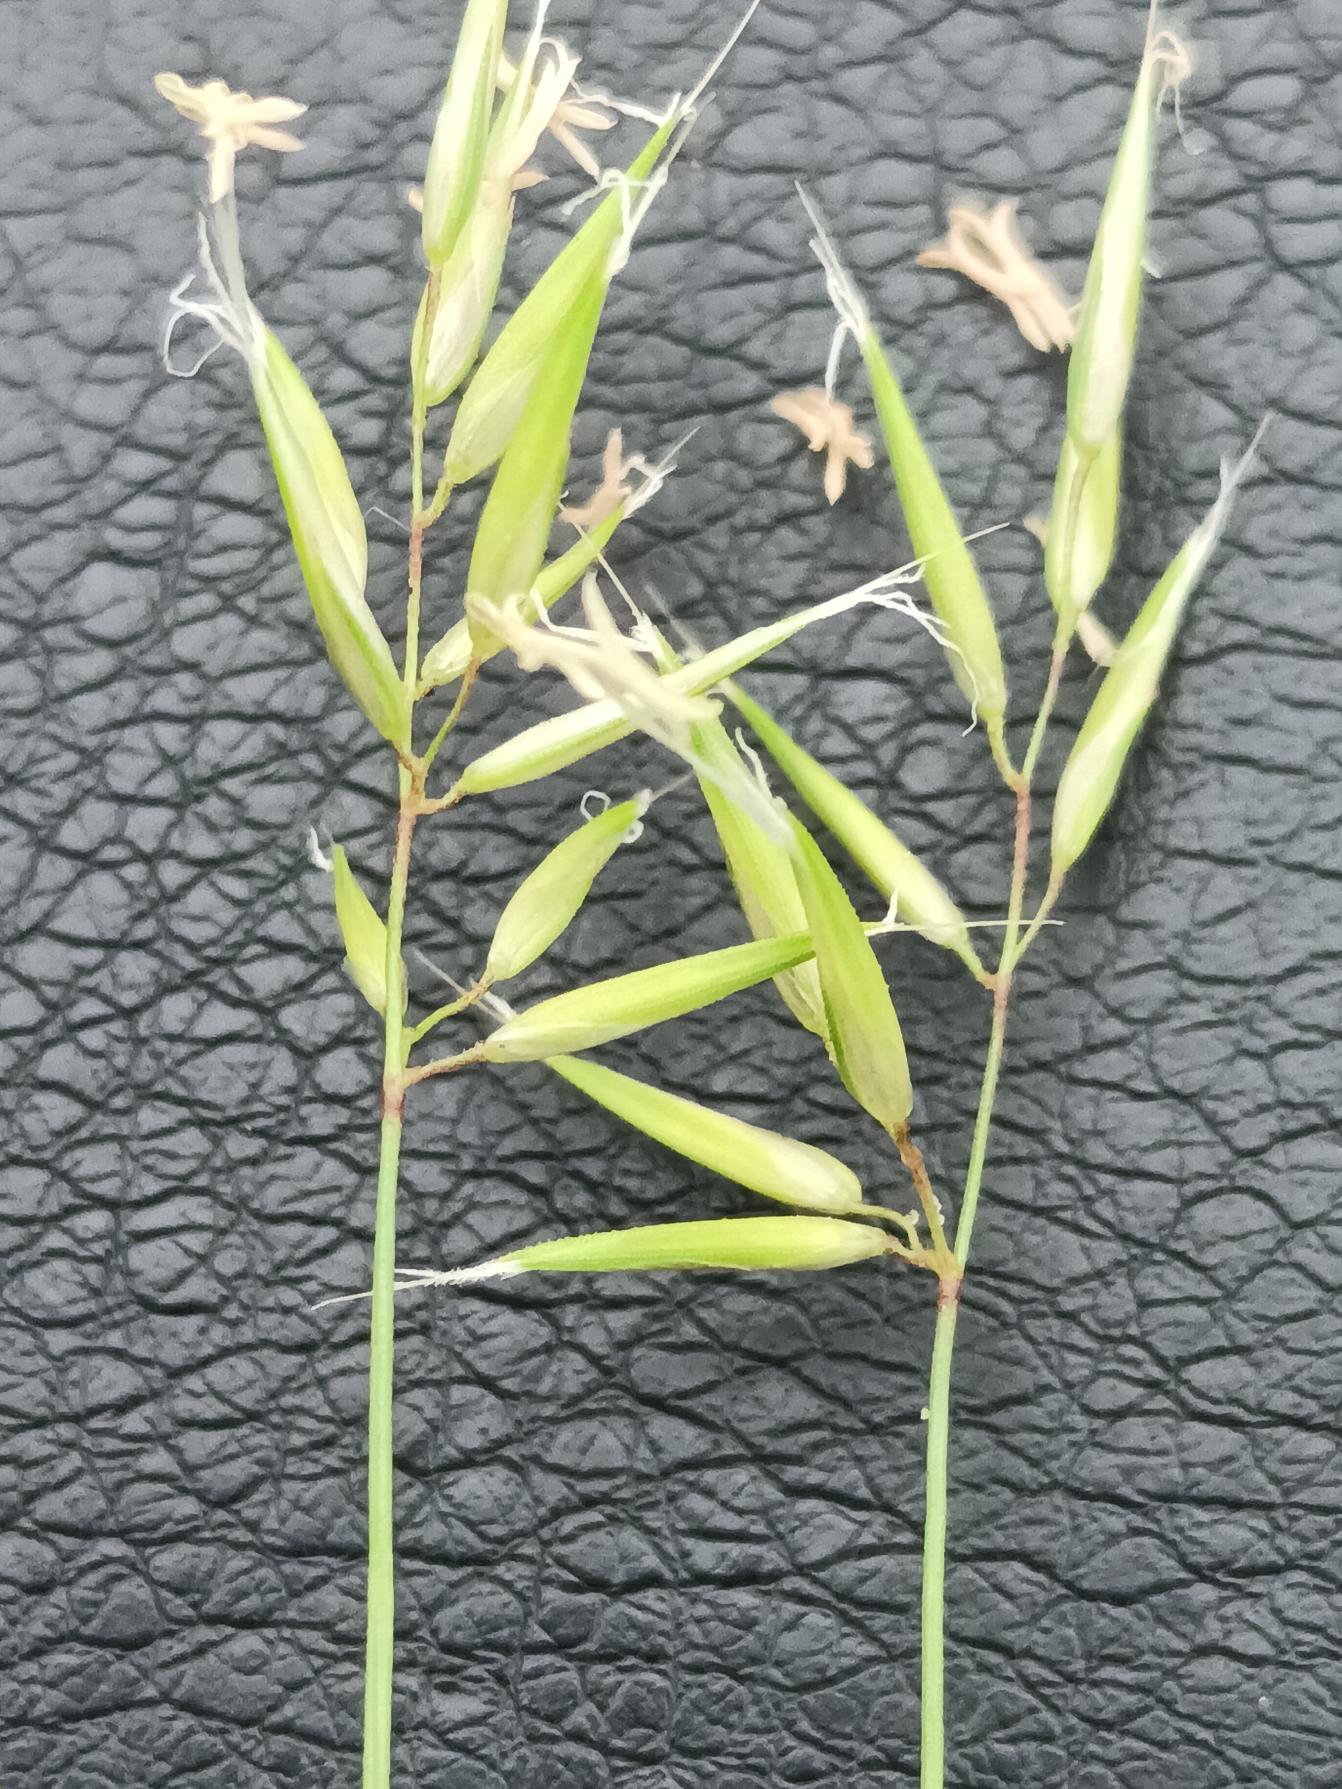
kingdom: Plantae
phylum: Tracheophyta
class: Liliopsida
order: Poales
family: Poaceae
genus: Anthoxanthum
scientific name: Anthoxanthum aristatum
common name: Enårig gulaks
